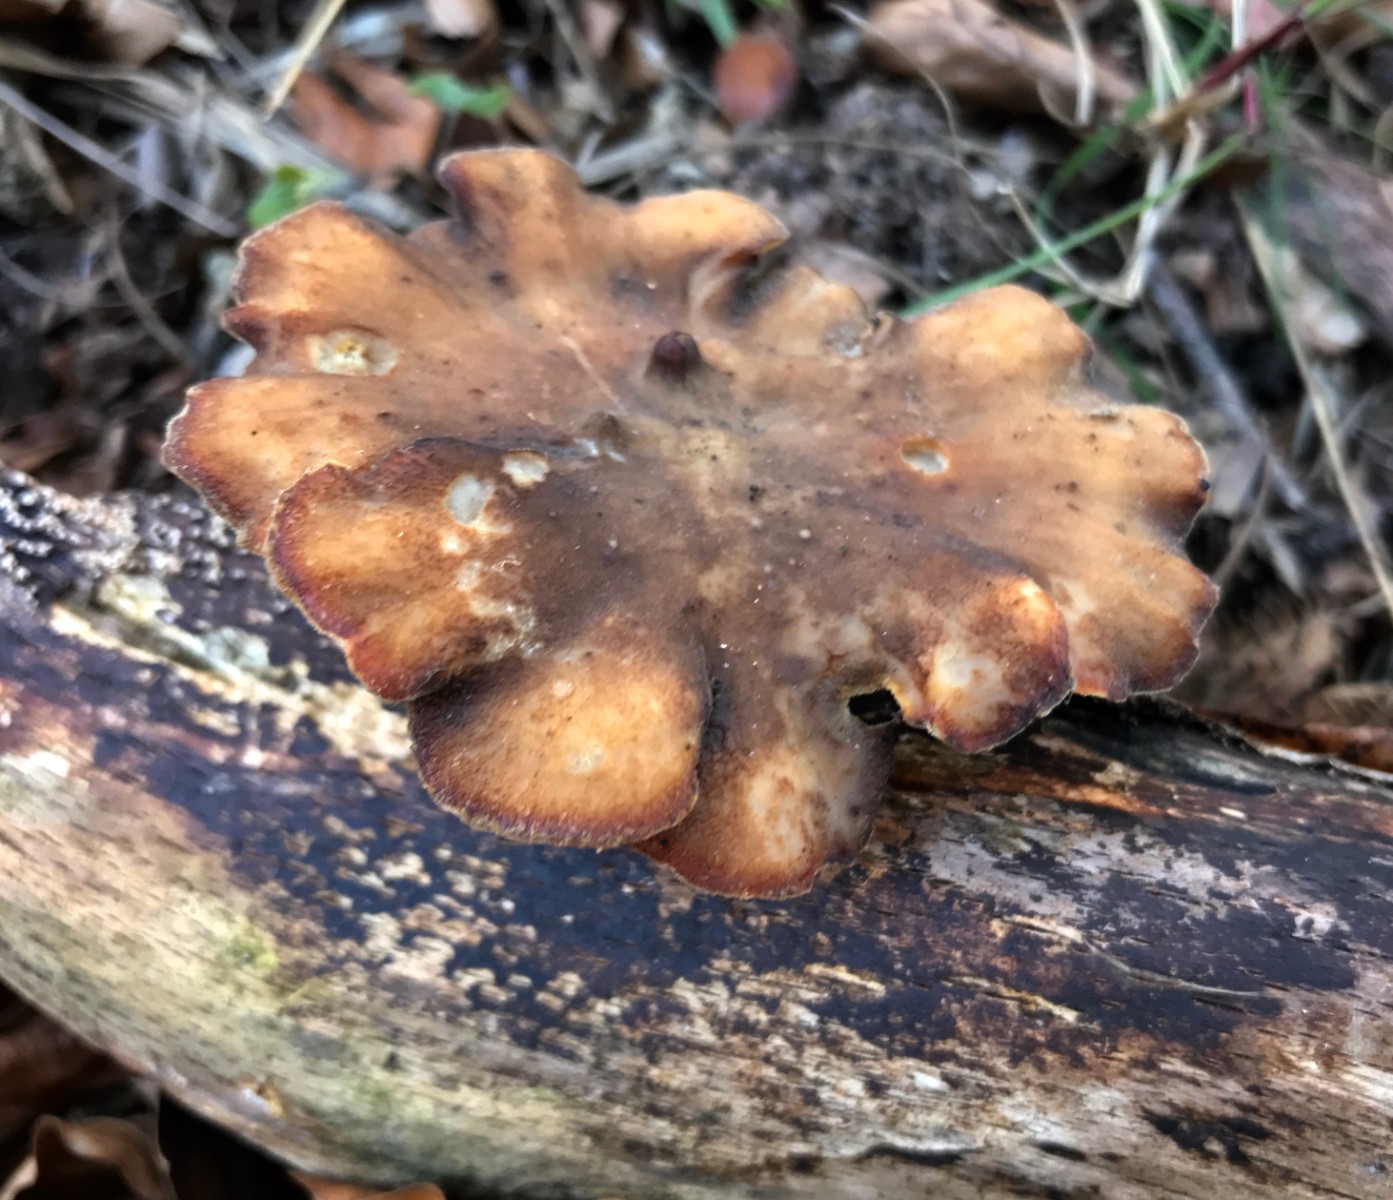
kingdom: Fungi
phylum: Basidiomycota
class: Agaricomycetes
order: Polyporales
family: Polyporaceae
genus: Lentinus
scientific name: Lentinus brumalis
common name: vinter-stilkporesvamp
